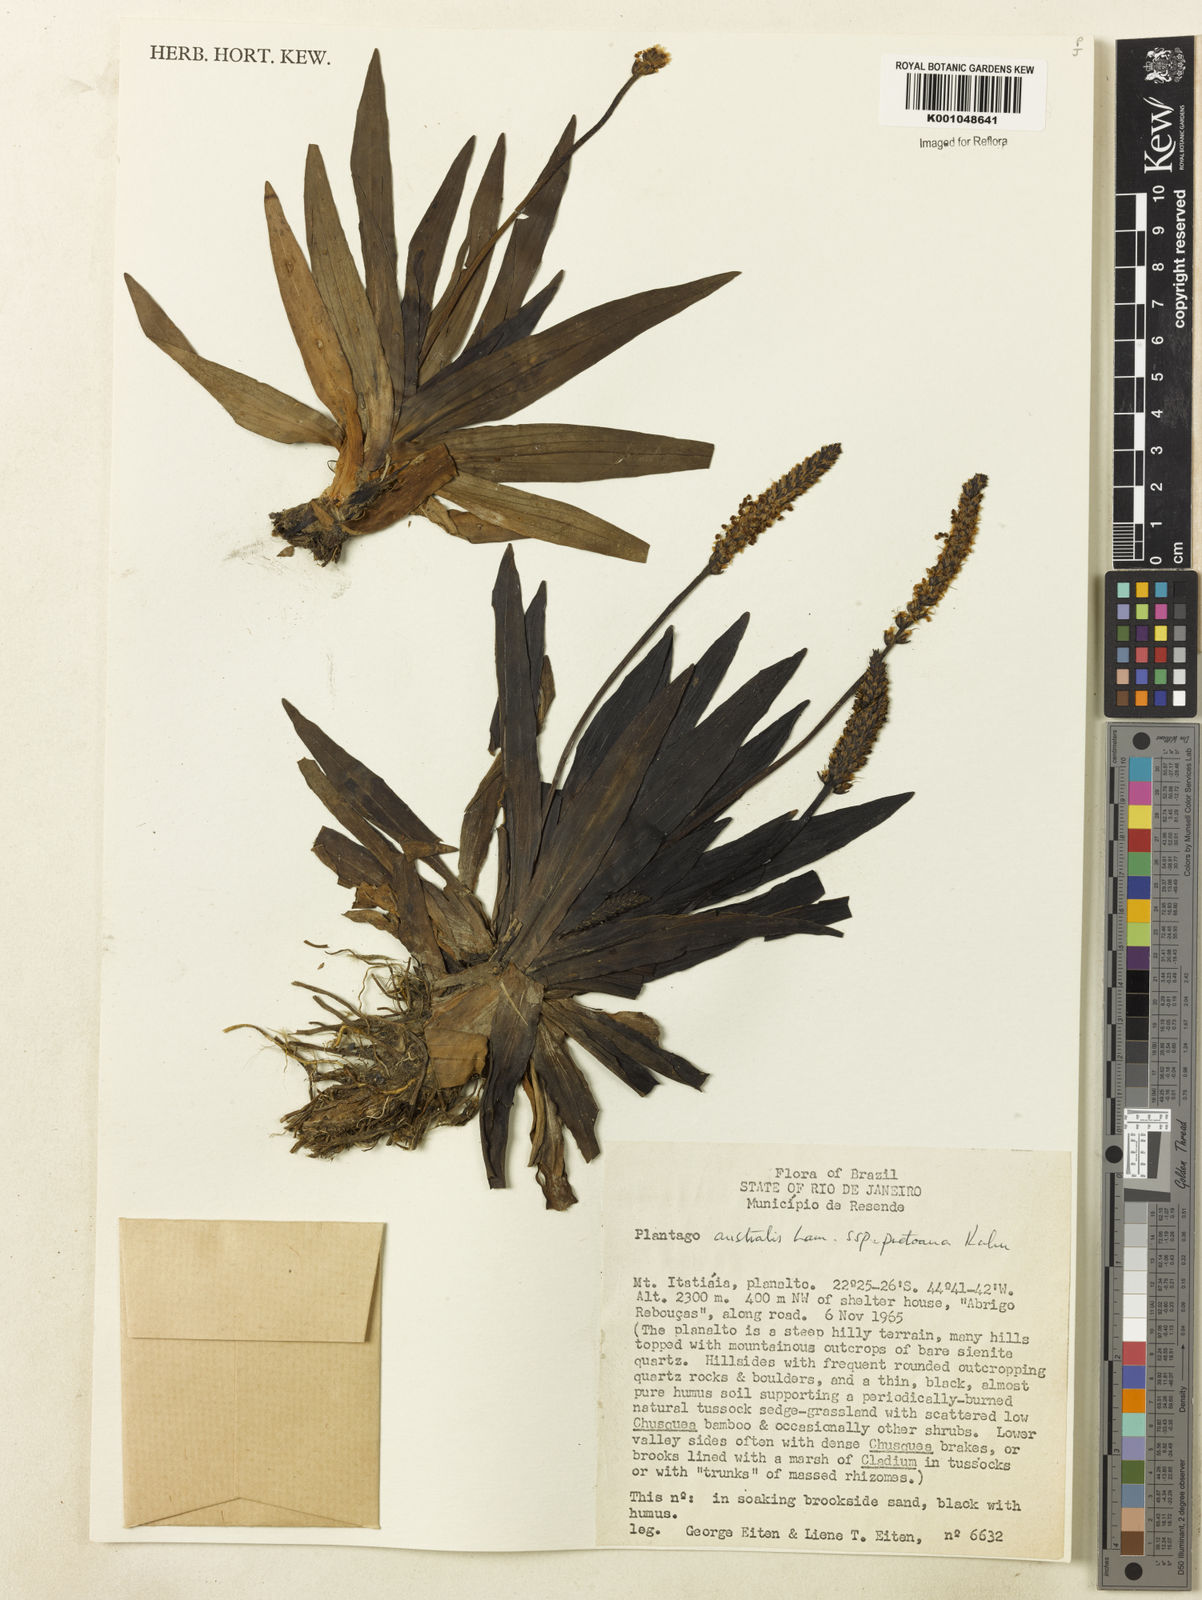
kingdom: Plantae
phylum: Tracheophyta
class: Magnoliopsida
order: Lamiales
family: Plantaginaceae
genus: Plantago
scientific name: Plantago australis
